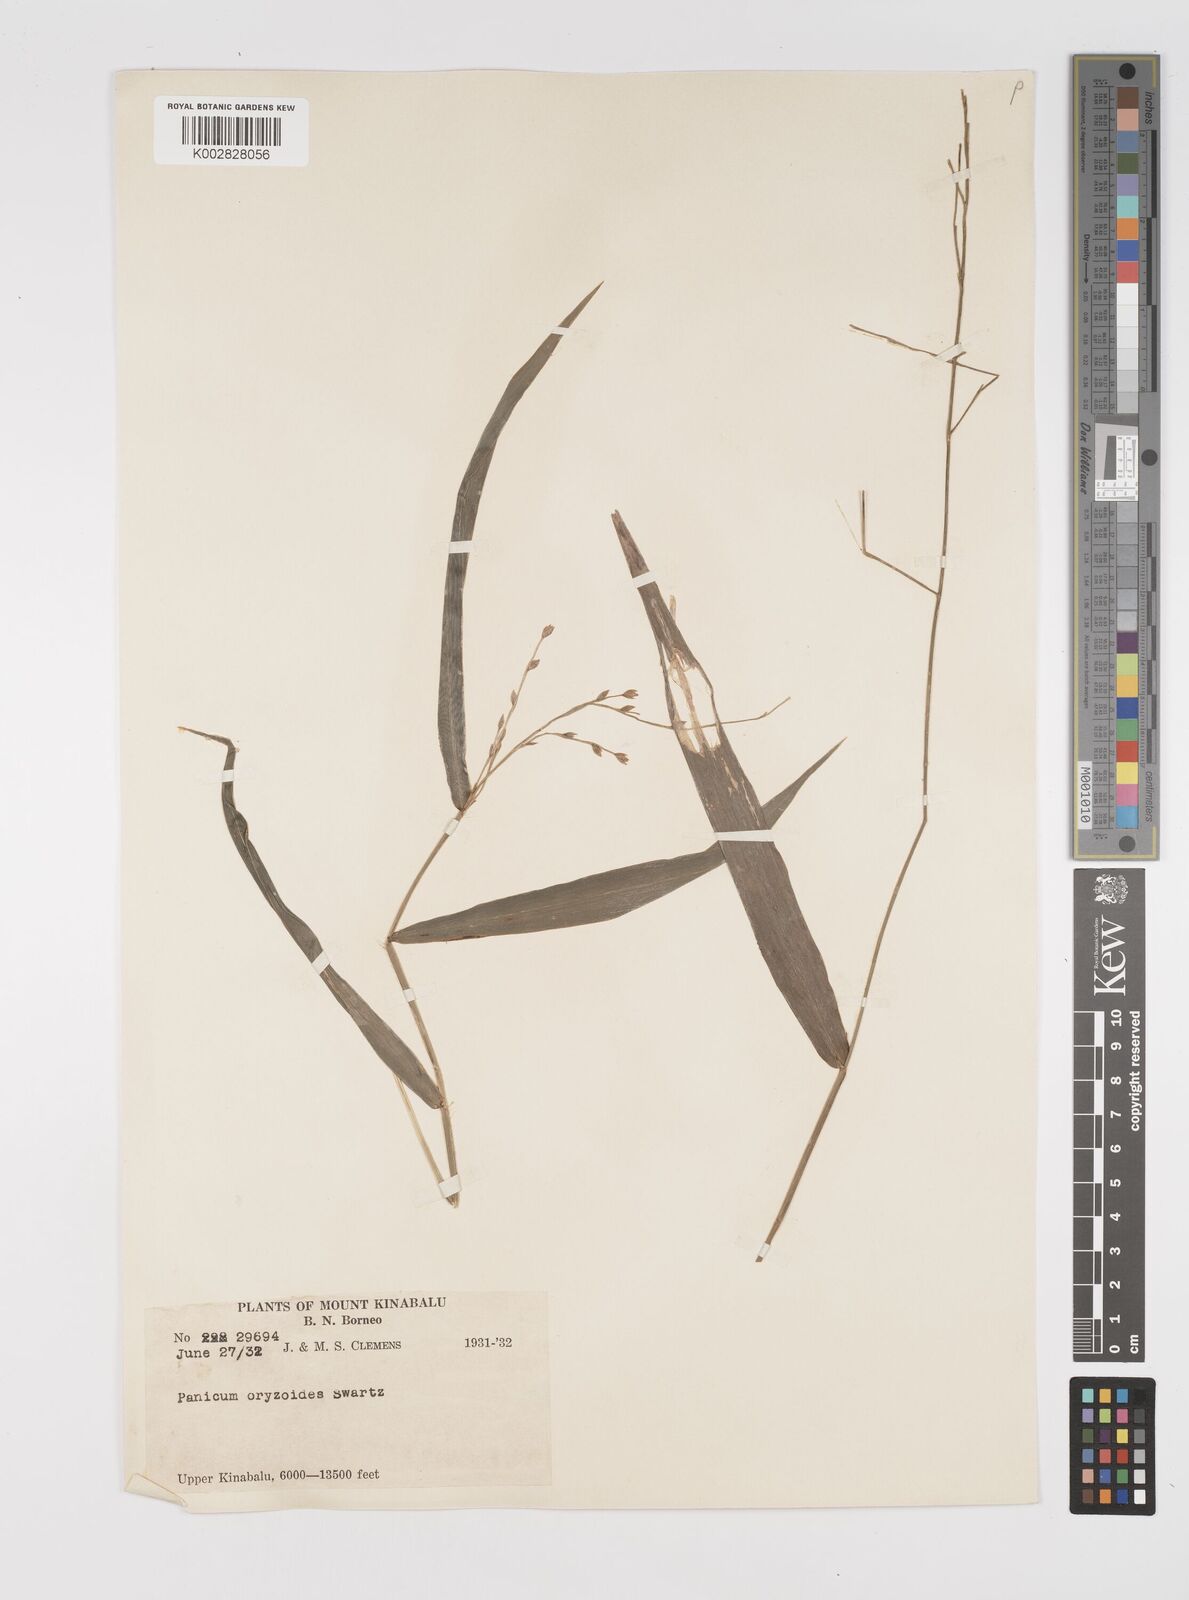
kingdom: Plantae
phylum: Tracheophyta
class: Liliopsida
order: Poales
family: Poaceae
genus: Acroceras
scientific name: Acroceras tonkinense
